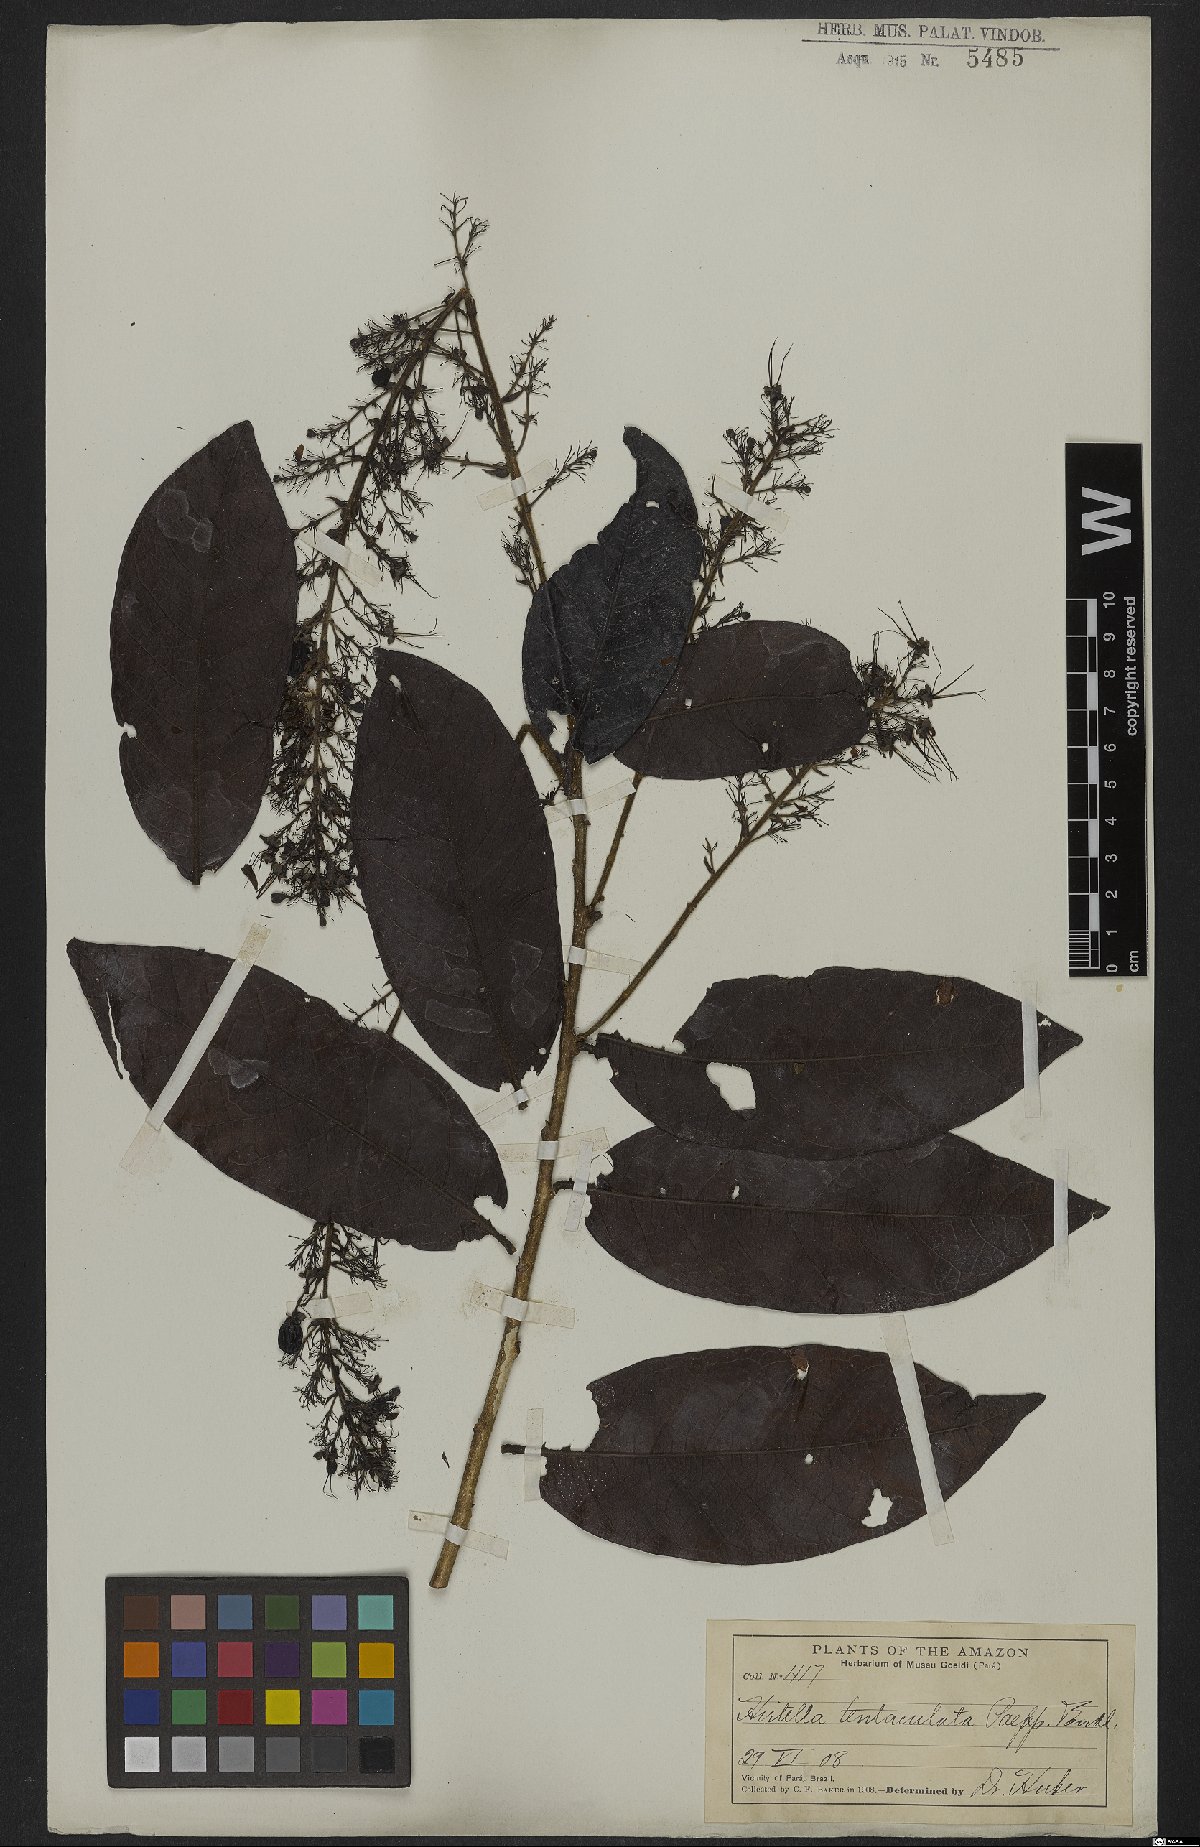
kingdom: Plantae
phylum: Tracheophyta
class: Magnoliopsida
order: Malpighiales
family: Chrysobalanaceae
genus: Hirtella
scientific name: Hirtella tentaculata
